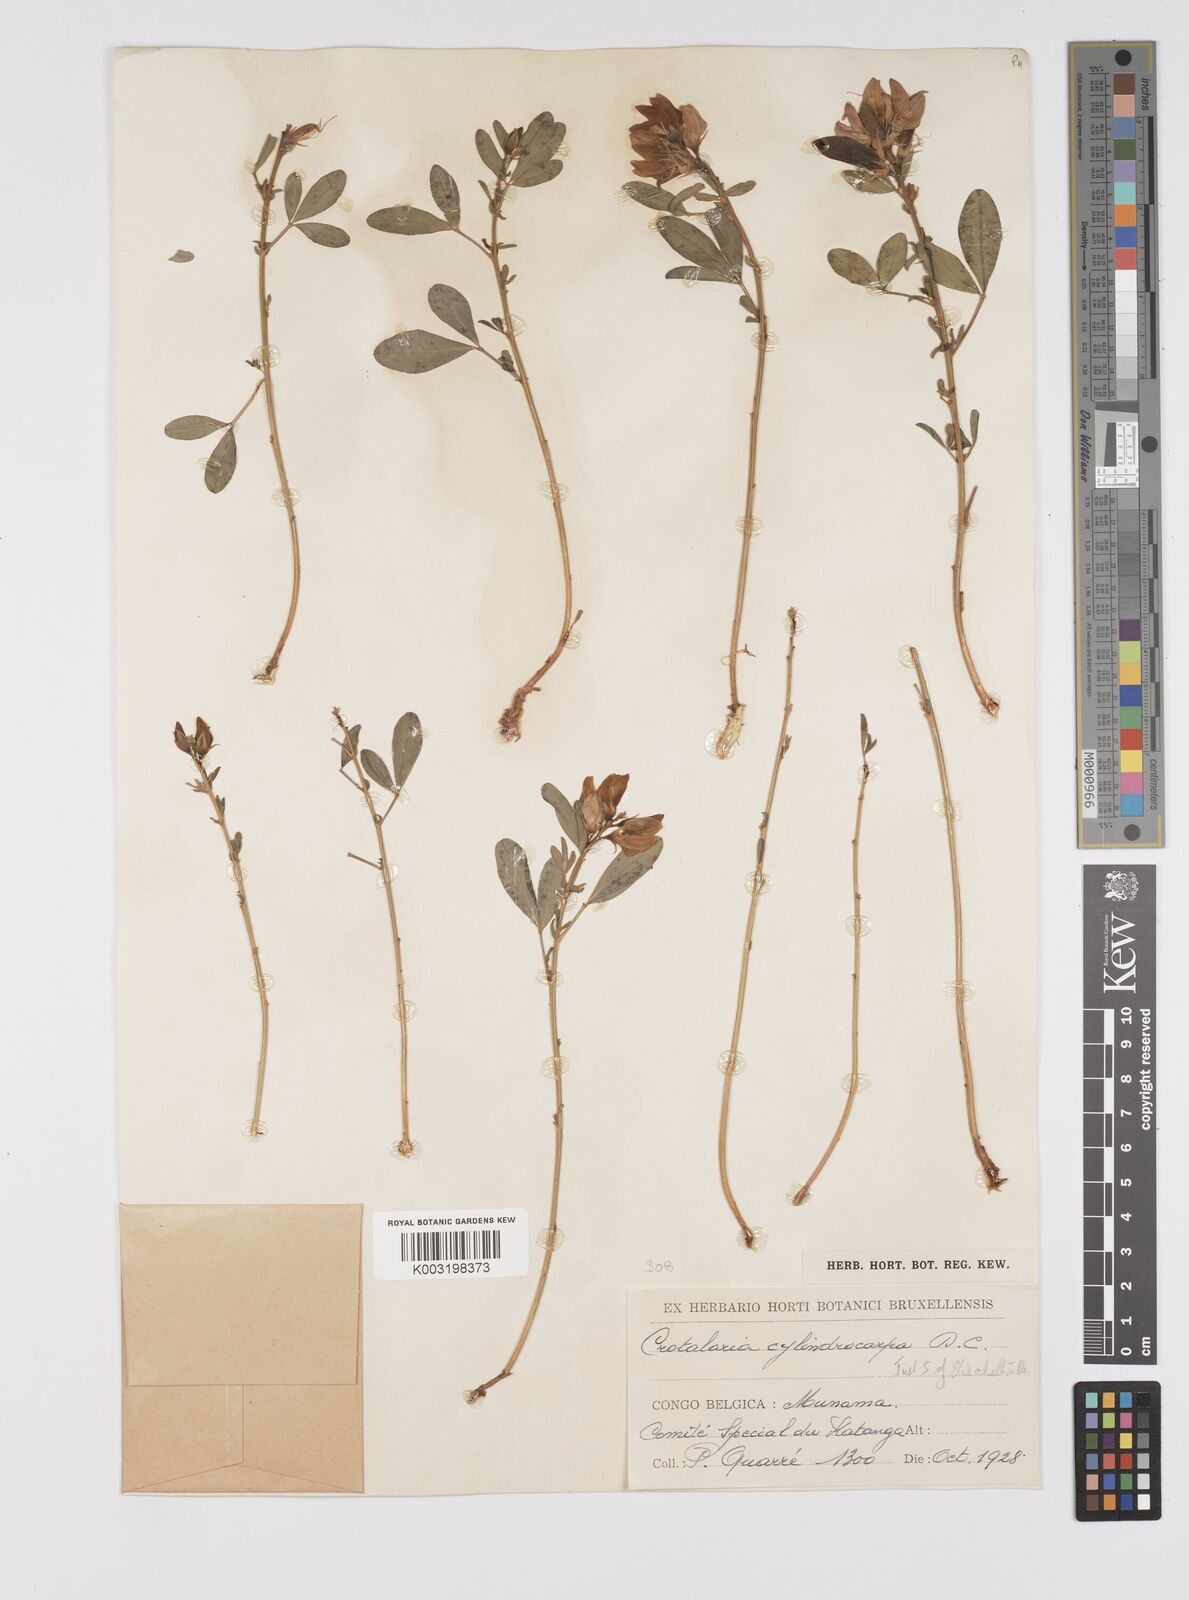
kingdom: Plantae
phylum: Tracheophyta
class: Magnoliopsida
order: Fabales
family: Fabaceae
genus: Crotalaria
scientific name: Crotalaria cylindrocarpa
